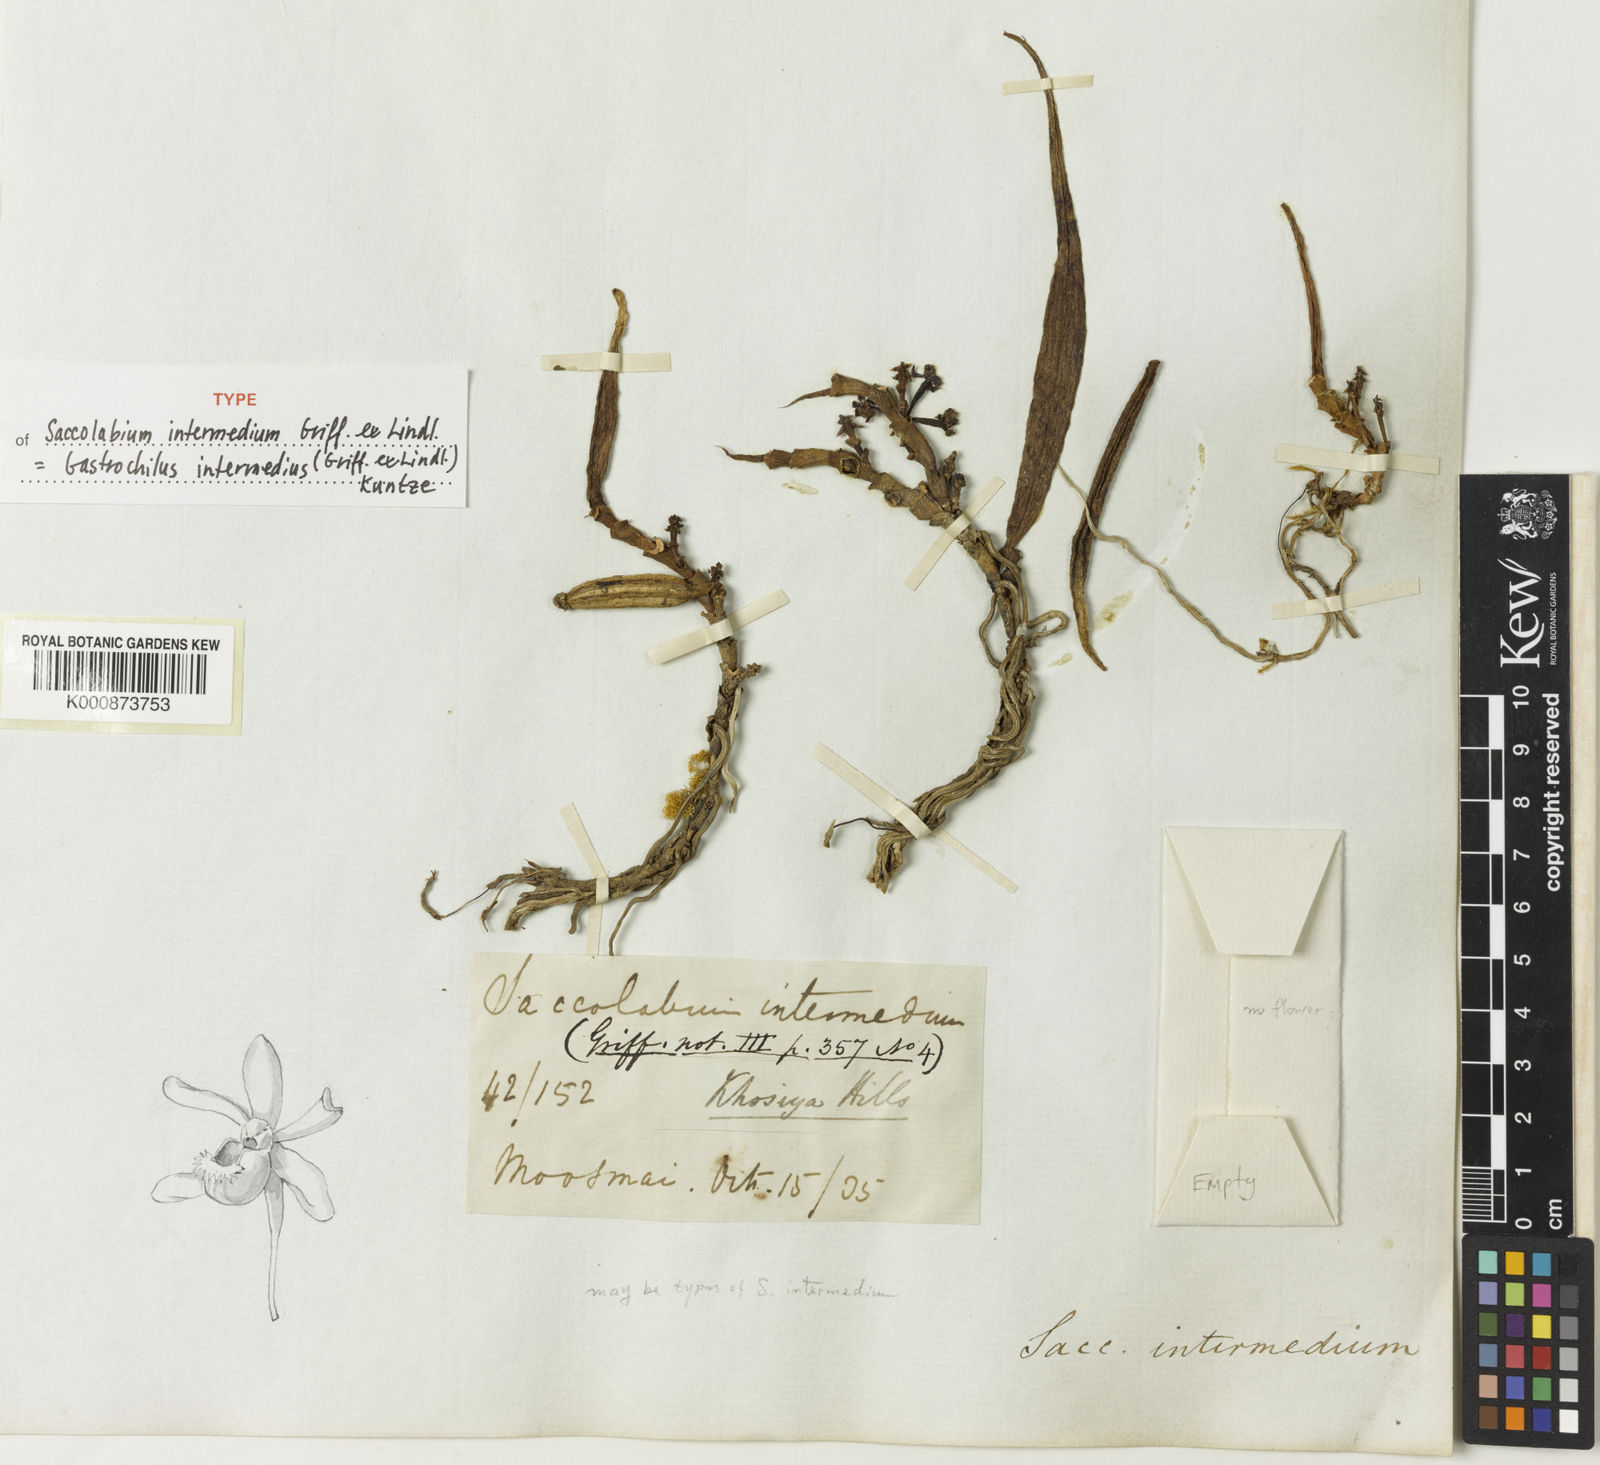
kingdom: Plantae
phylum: Tracheophyta
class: Liliopsida
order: Asparagales
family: Orchidaceae
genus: Gastrochilus
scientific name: Gastrochilus intermedius
